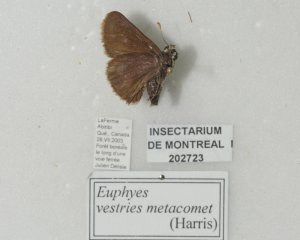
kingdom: Animalia
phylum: Arthropoda
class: Insecta
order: Lepidoptera
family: Hesperiidae
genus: Euphyes
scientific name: Euphyes vestris
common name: Dun Skipper
